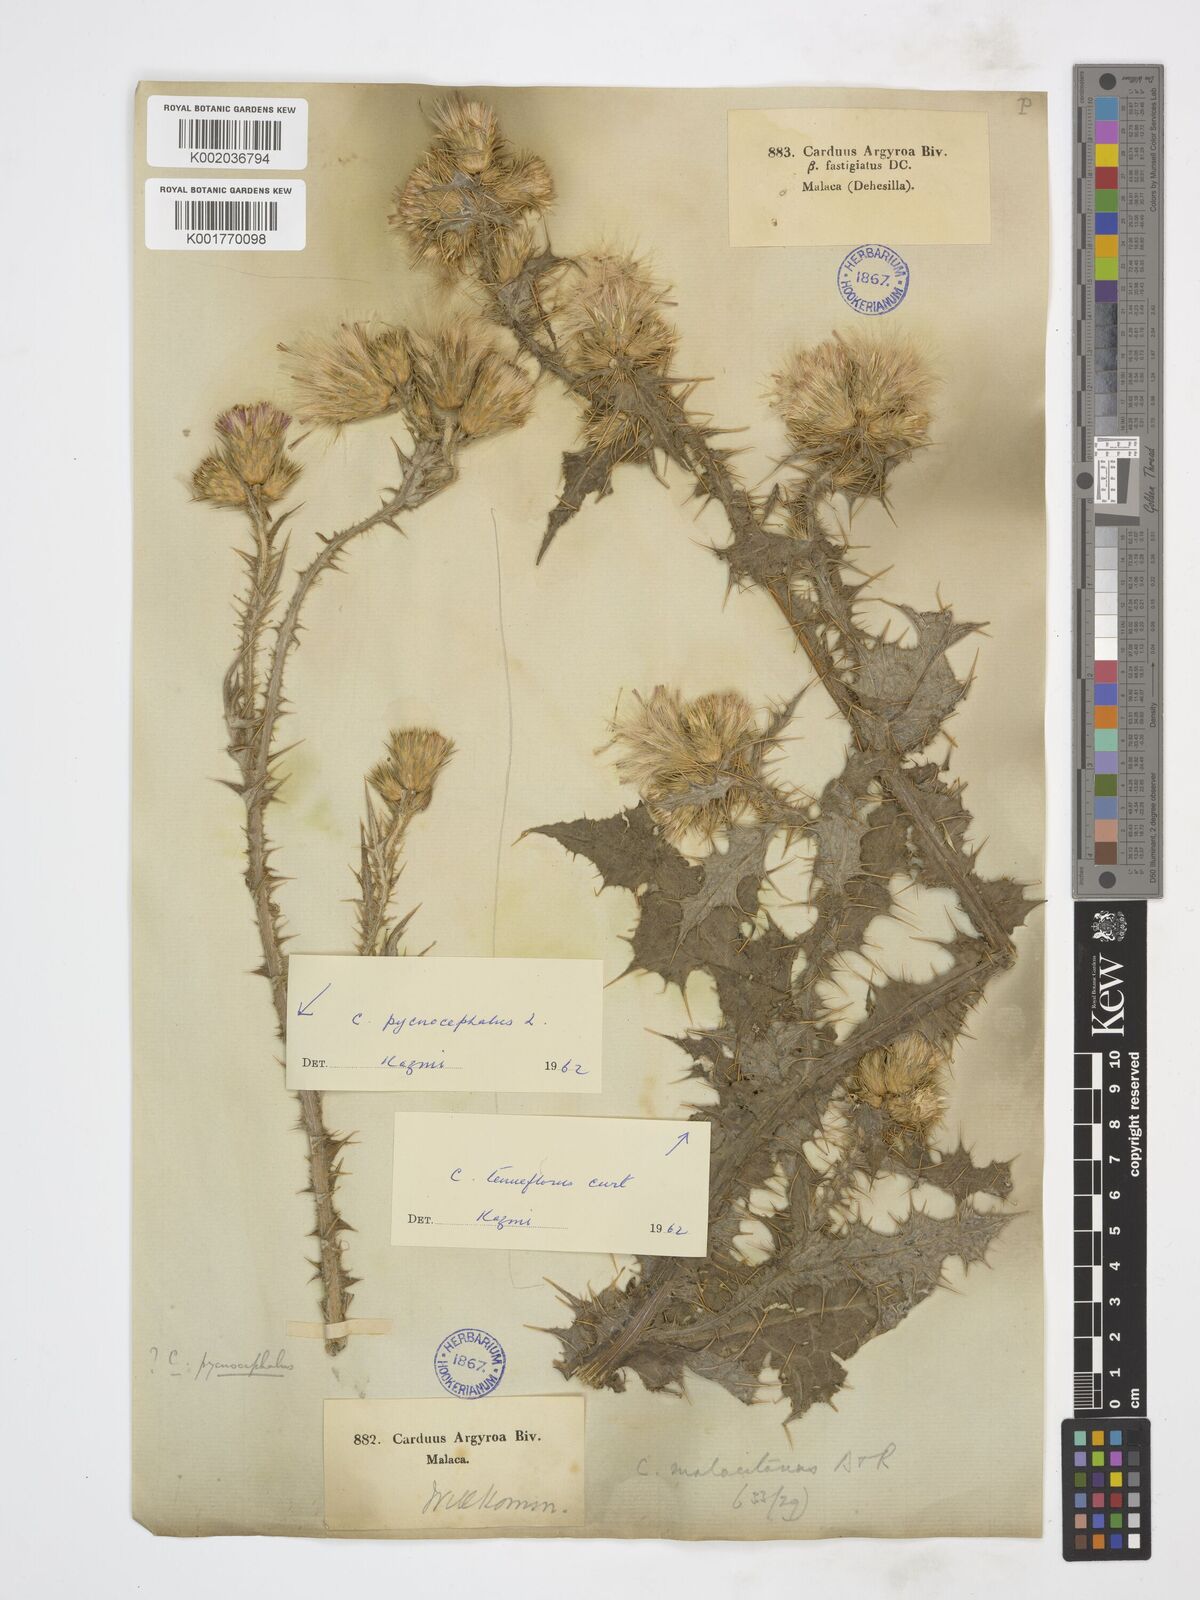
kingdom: Plantae
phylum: Tracheophyta
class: Magnoliopsida
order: Asterales
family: Asteraceae
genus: Carduus
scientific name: Carduus tenuiflorus
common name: Slender thistle
